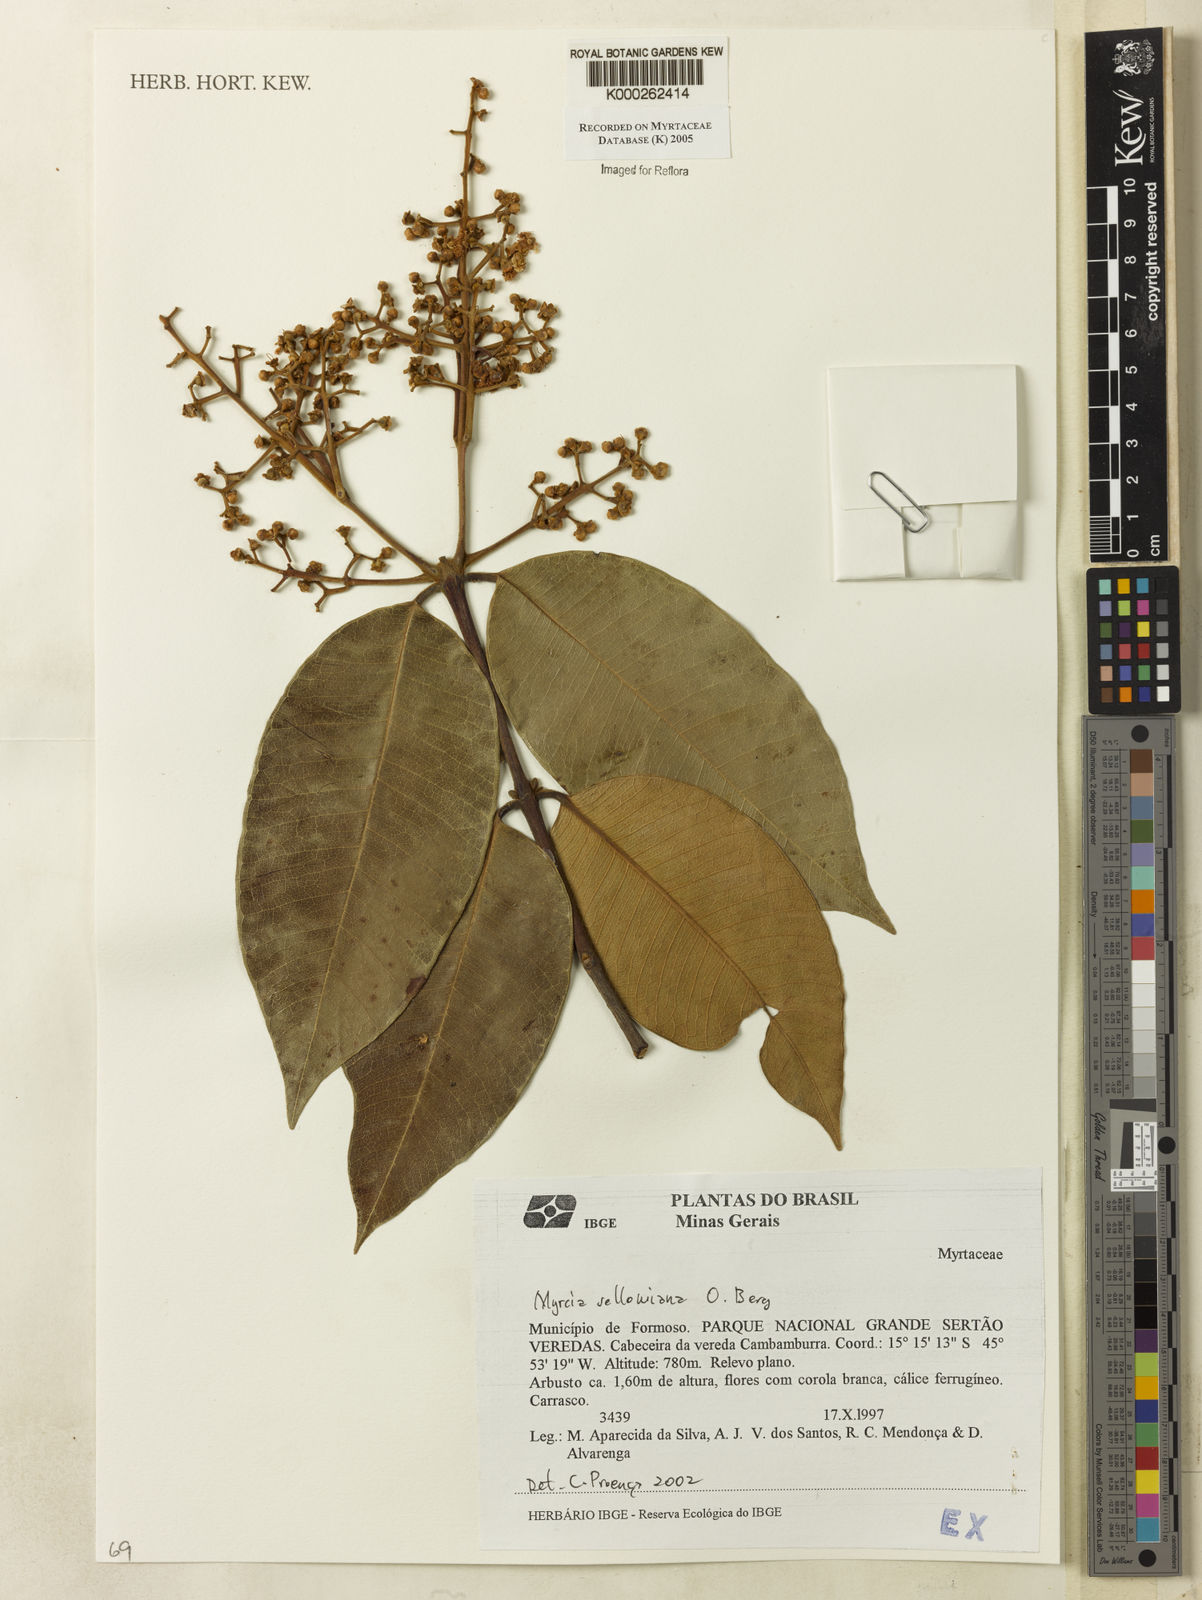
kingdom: Plantae
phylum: Tracheophyta
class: Magnoliopsida
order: Myrtales
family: Myrtaceae
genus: Myrcia
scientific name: Myrcia splendens
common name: Surinam cherry
